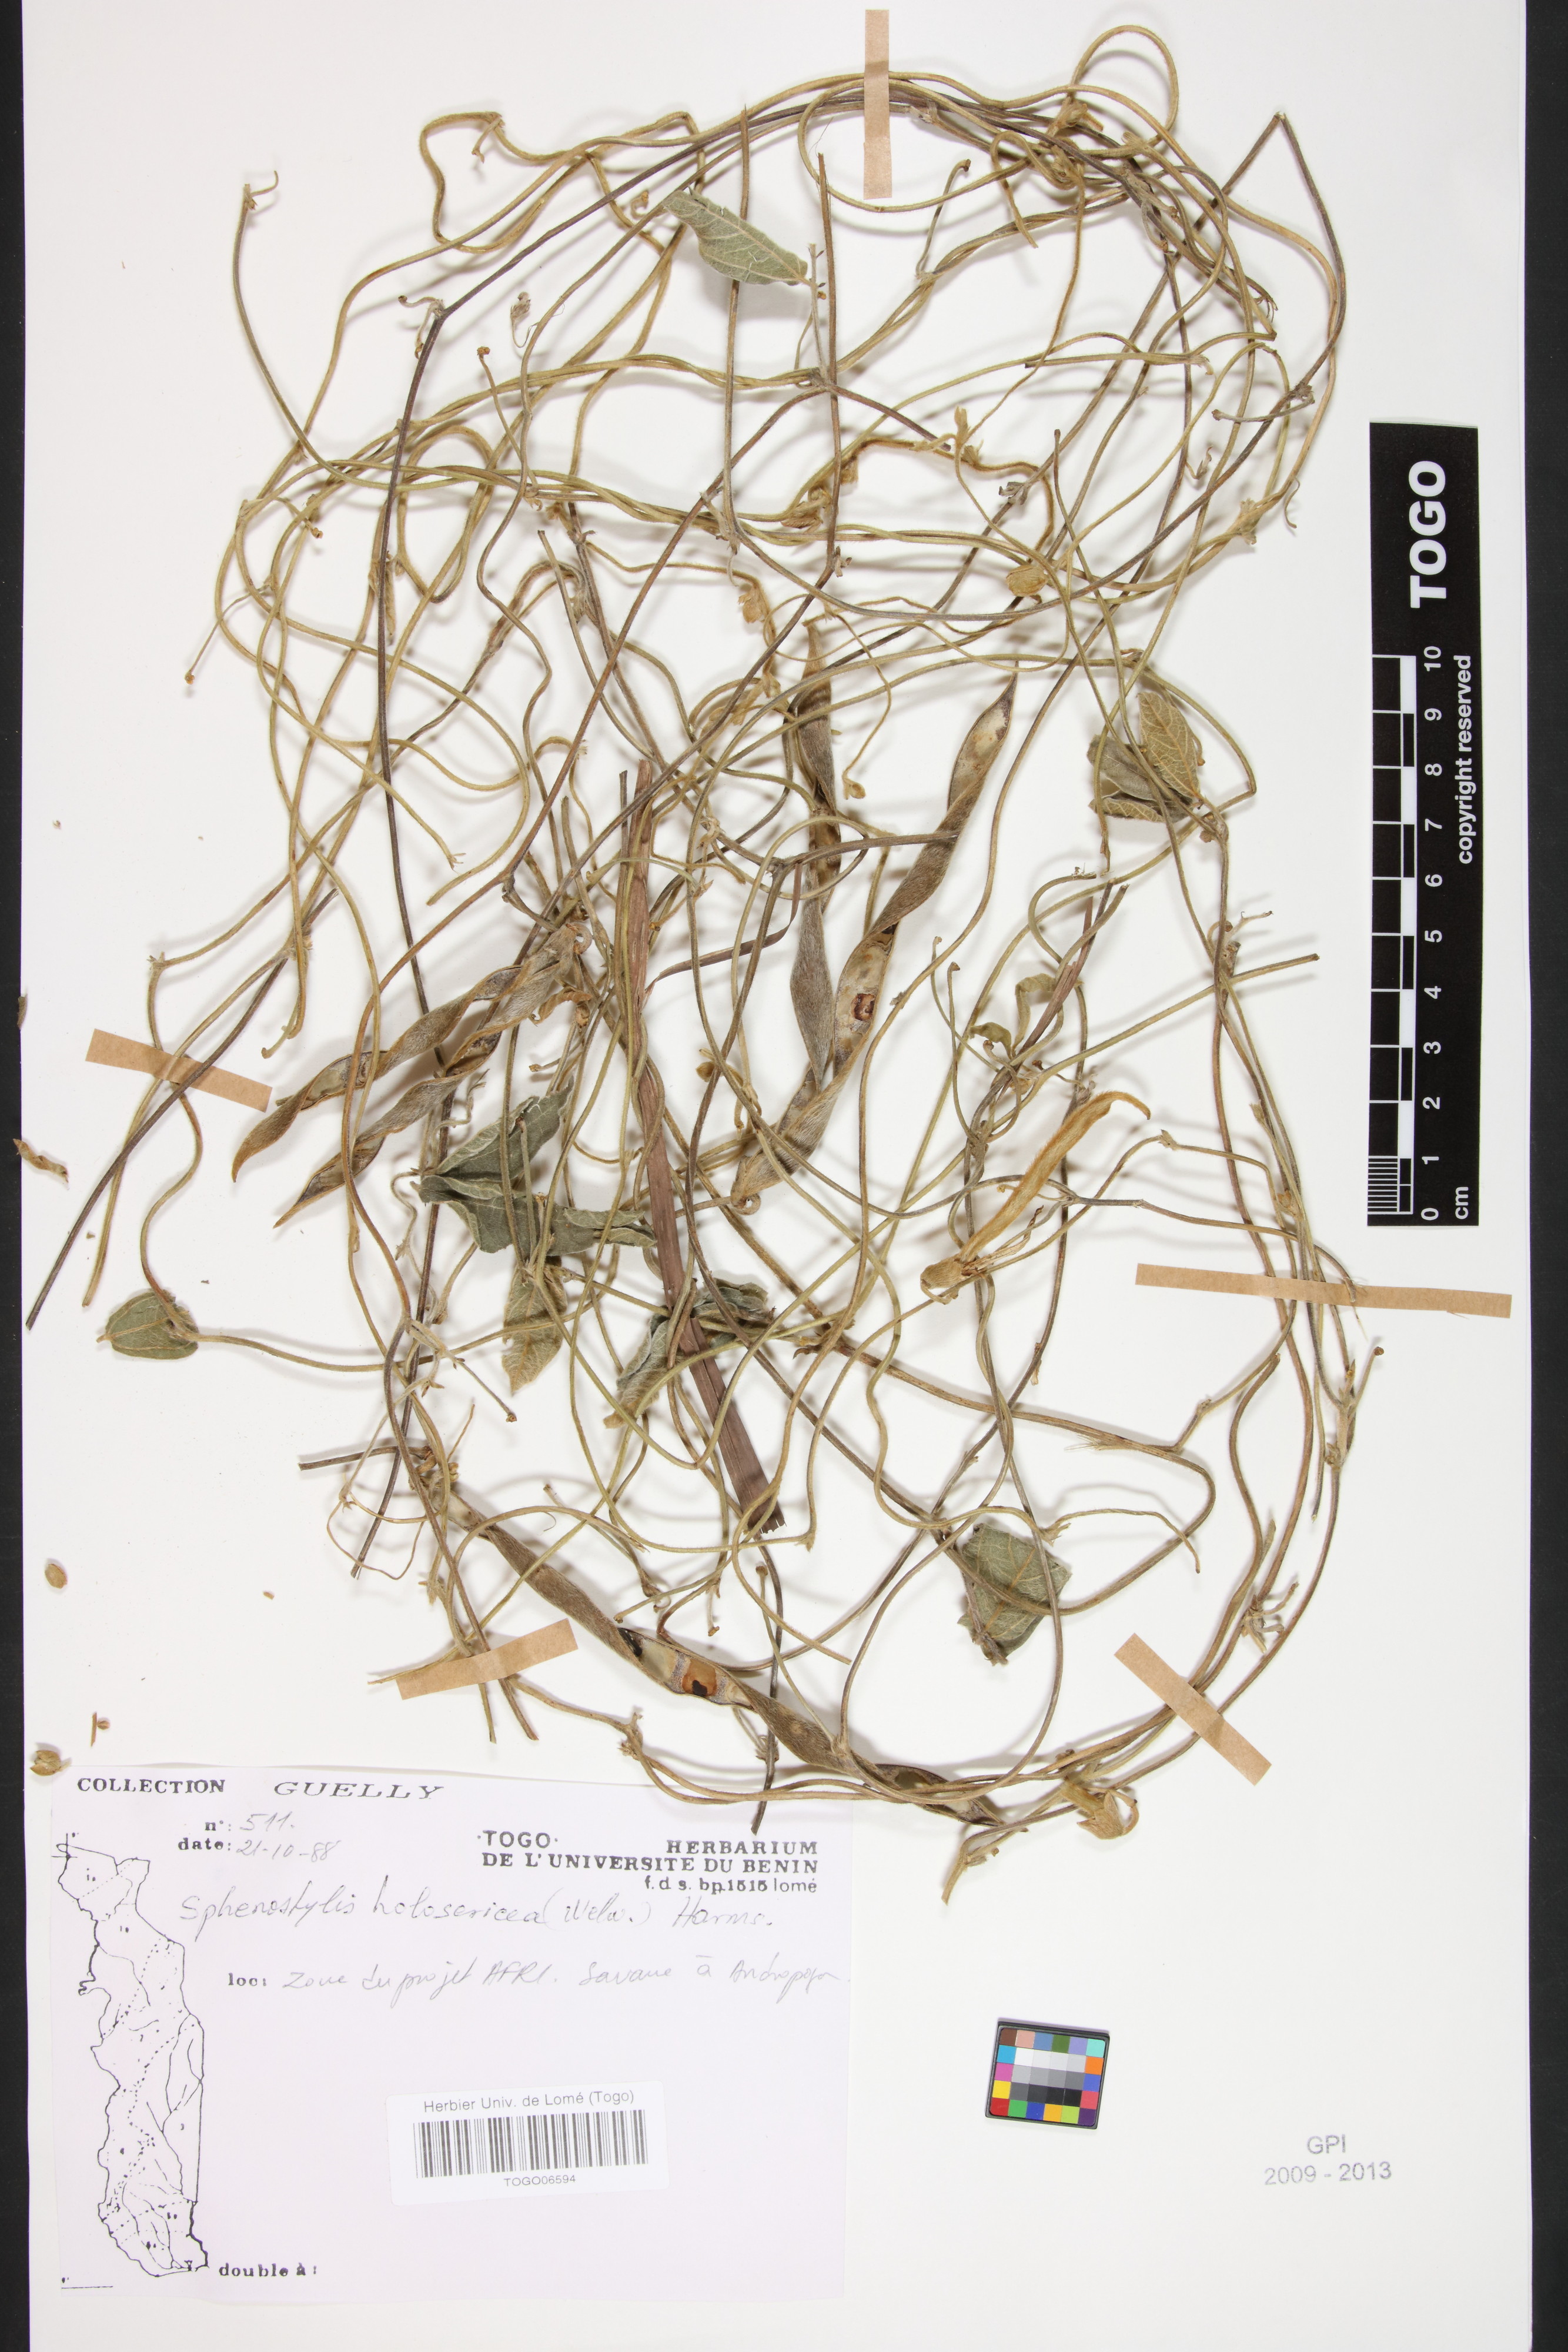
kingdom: Plantae
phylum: Tracheophyta
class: Magnoliopsida
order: Fabales
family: Fabaceae
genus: Nesphostylis
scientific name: Nesphostylis holosericea
